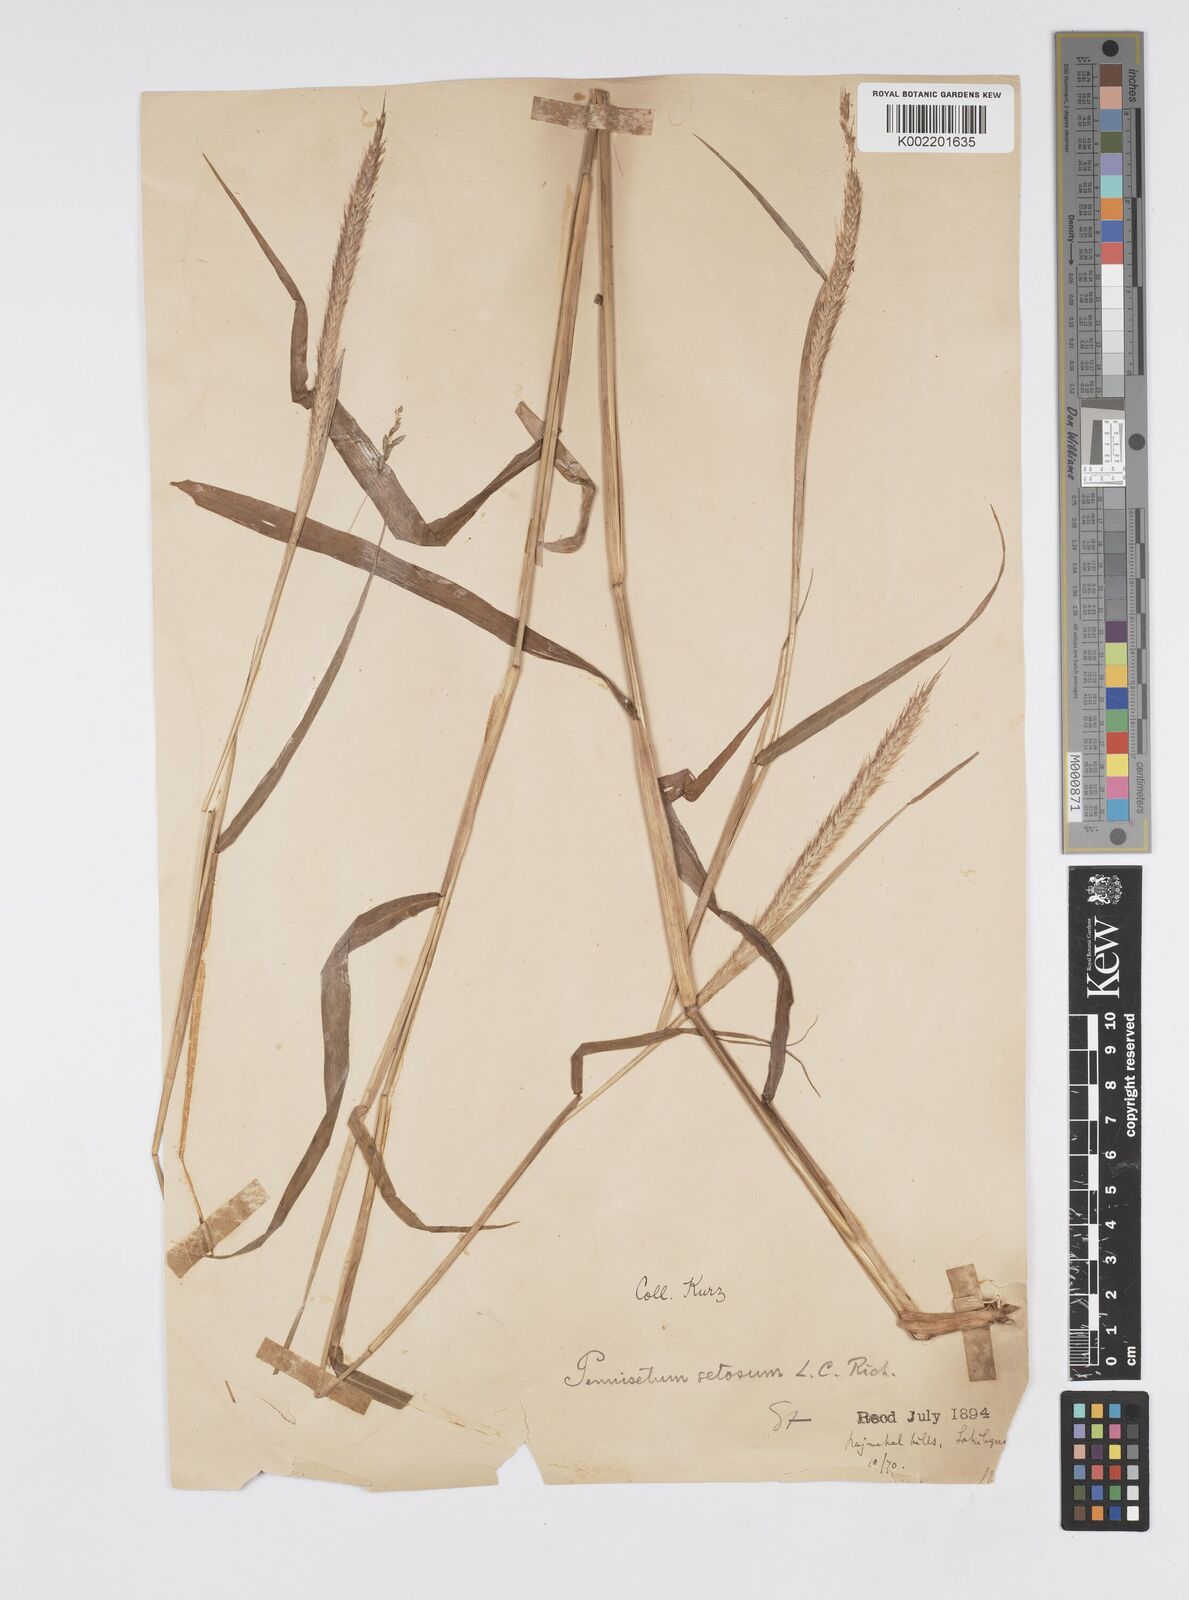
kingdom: Plantae
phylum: Tracheophyta
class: Liliopsida
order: Poales
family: Poaceae
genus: Setaria
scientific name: Setaria parviflora
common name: Knotroot bristle-grass
